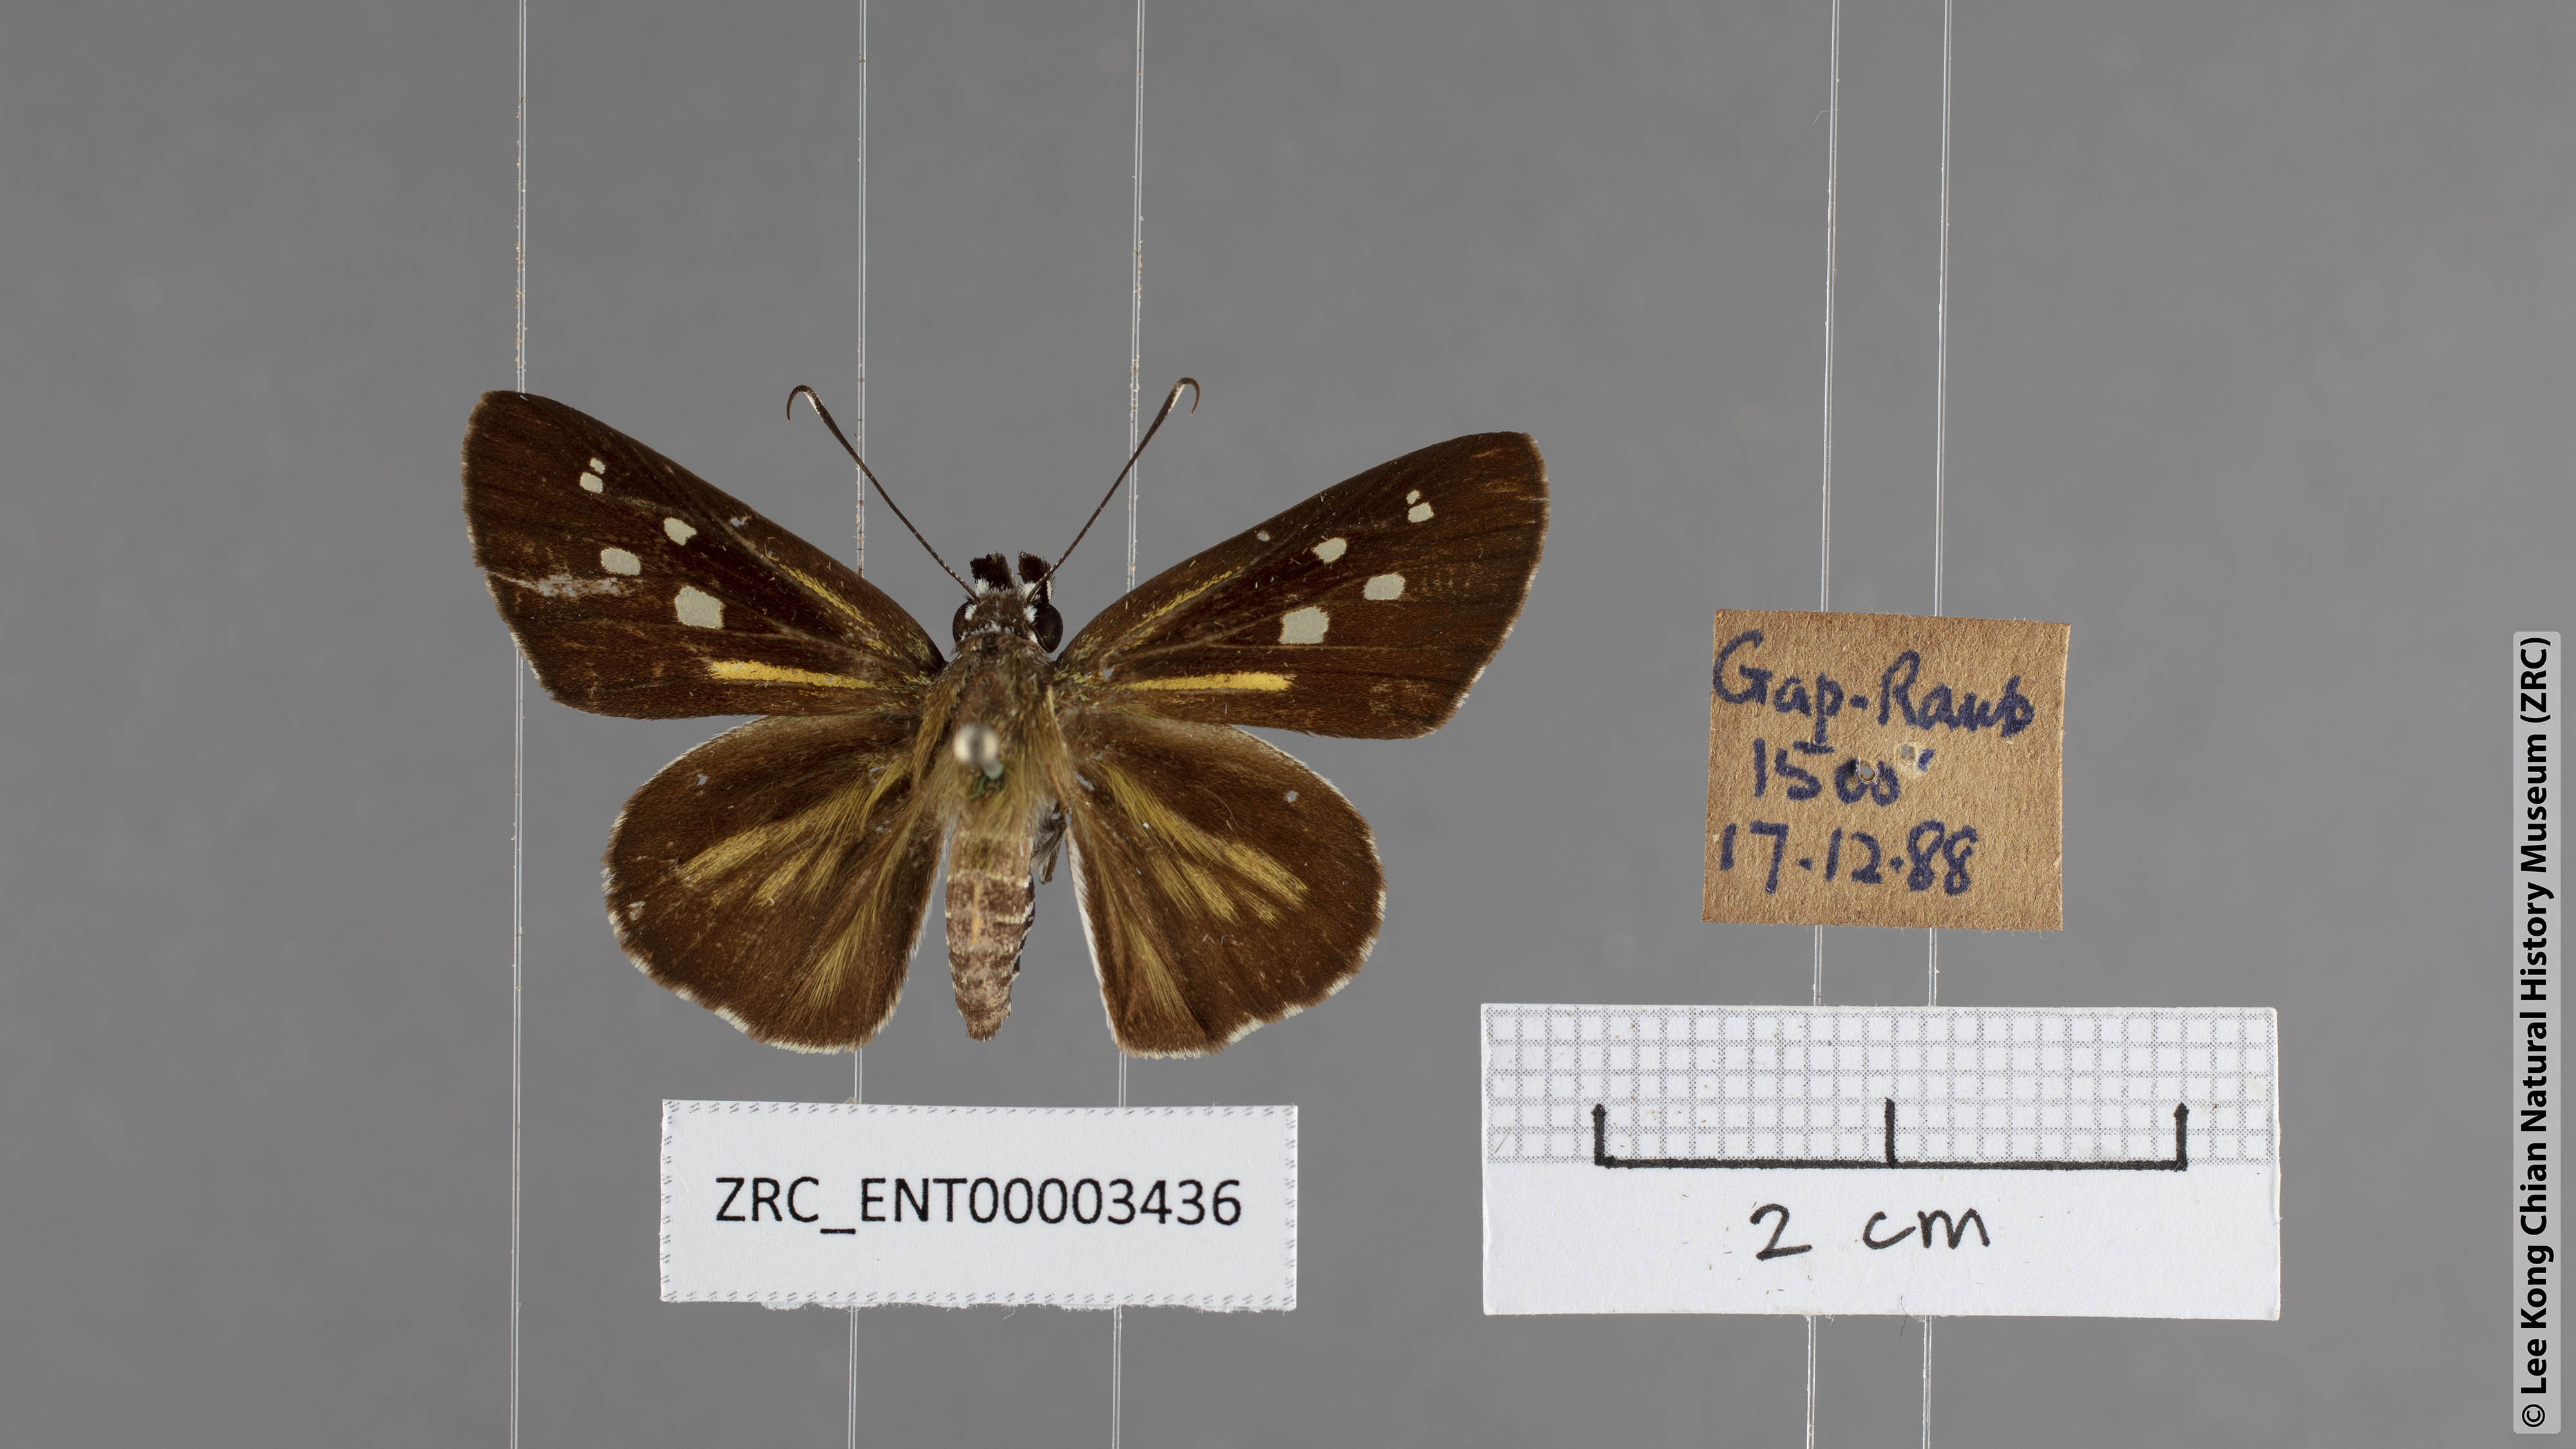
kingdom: Animalia
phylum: Arthropoda
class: Insecta
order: Lepidoptera
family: Hesperiidae
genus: Plastingia
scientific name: Plastingia naga
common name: Chequered lancer
